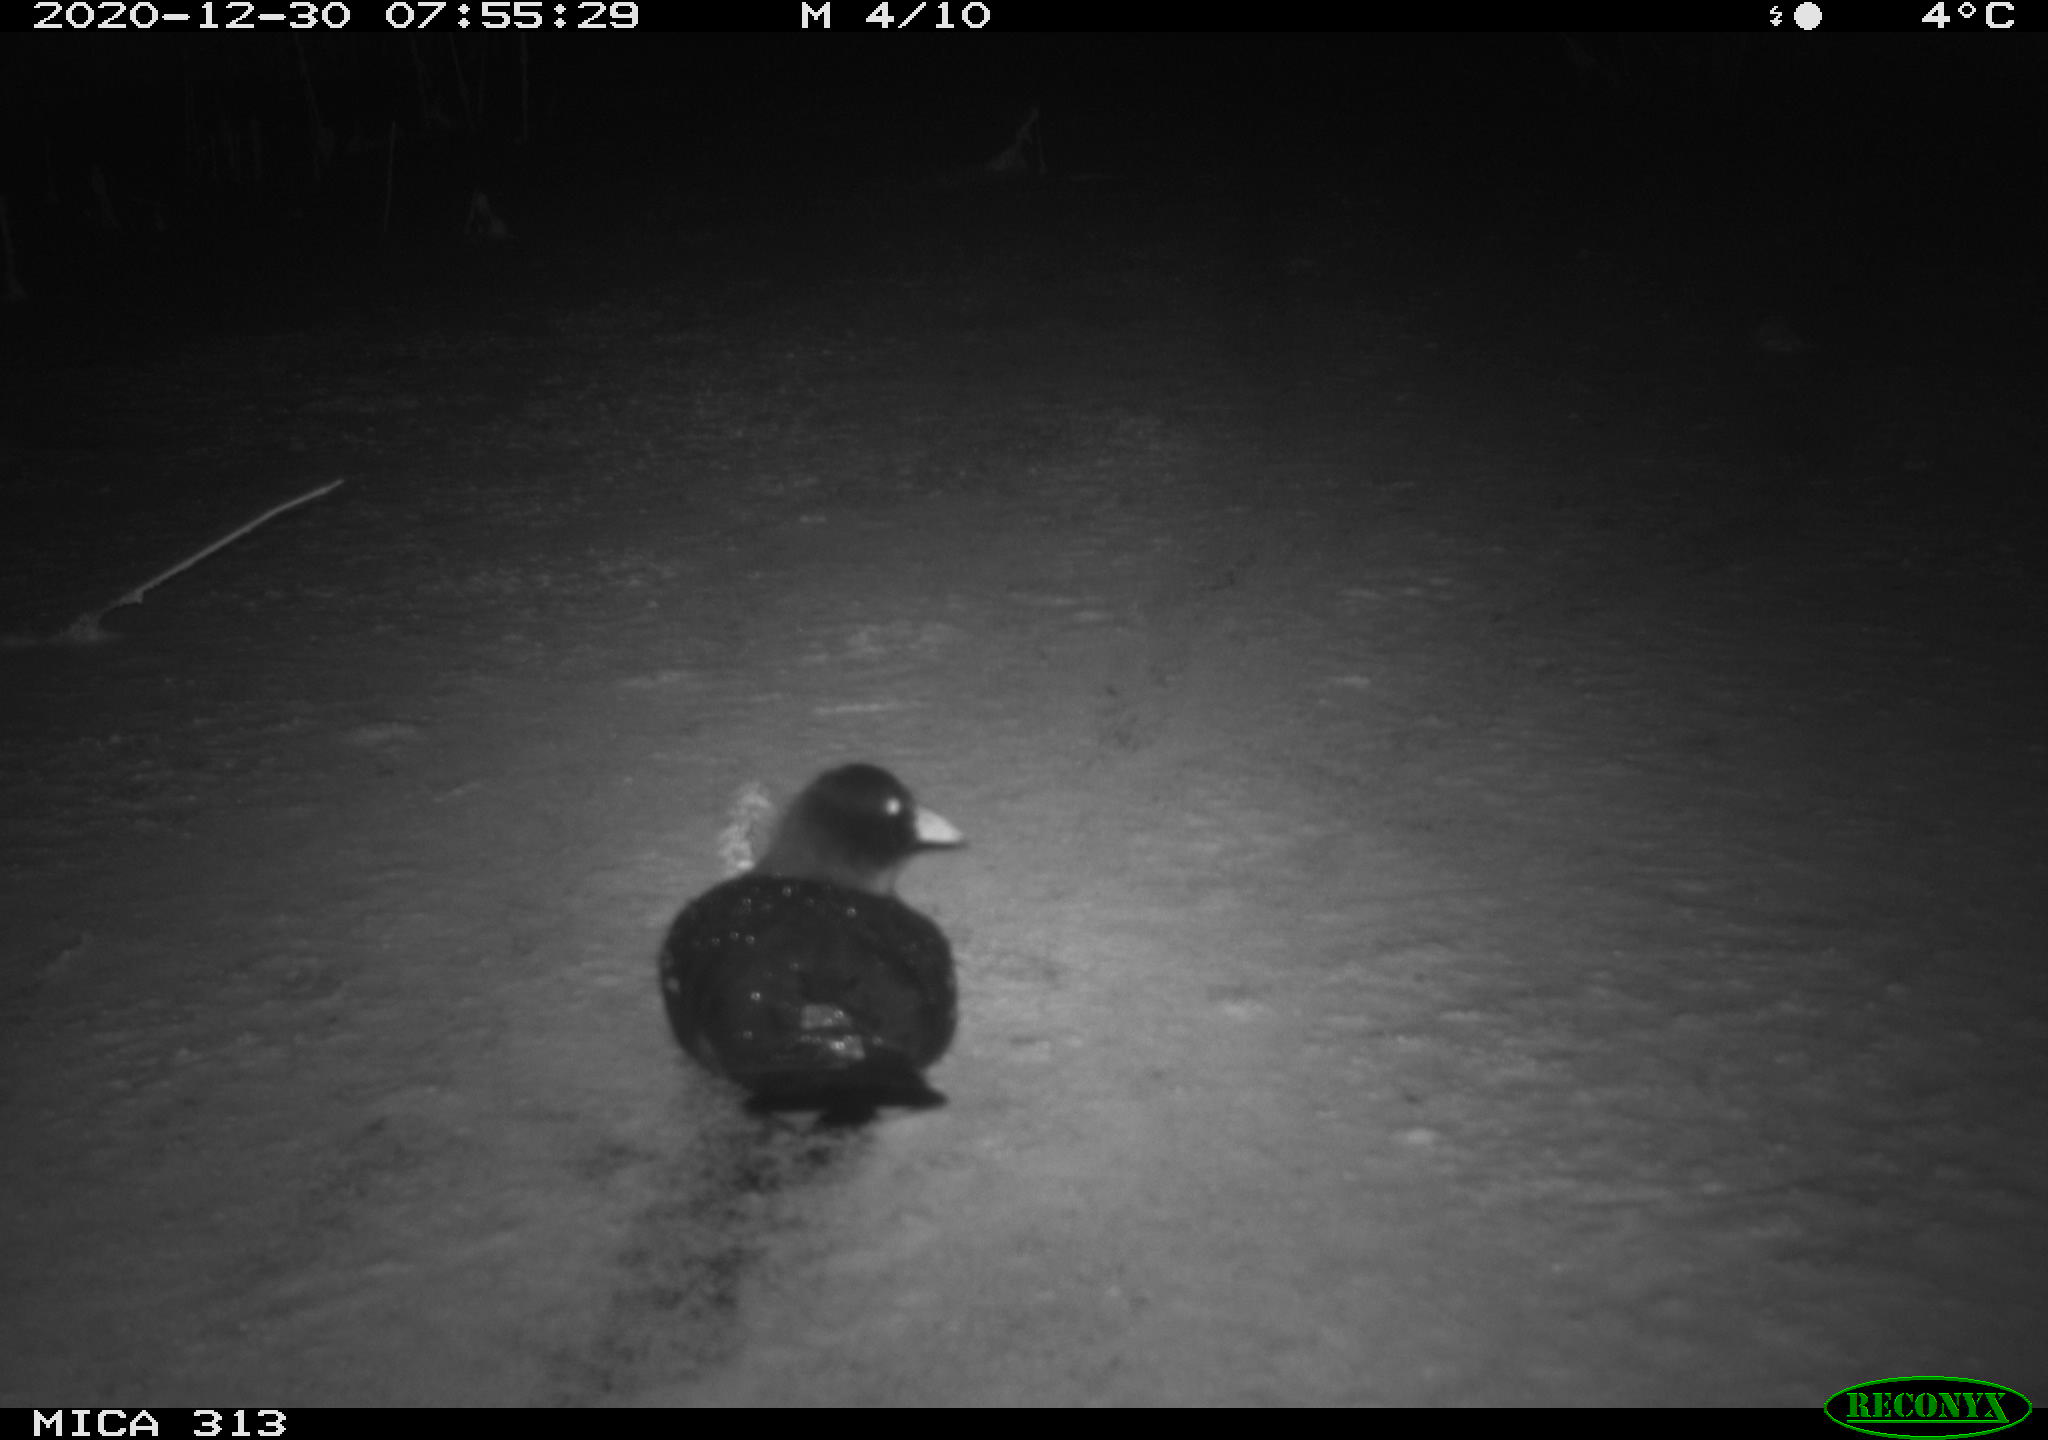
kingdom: Animalia
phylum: Chordata
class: Aves
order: Gruiformes
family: Rallidae
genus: Fulica
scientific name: Fulica atra
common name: Eurasian coot
